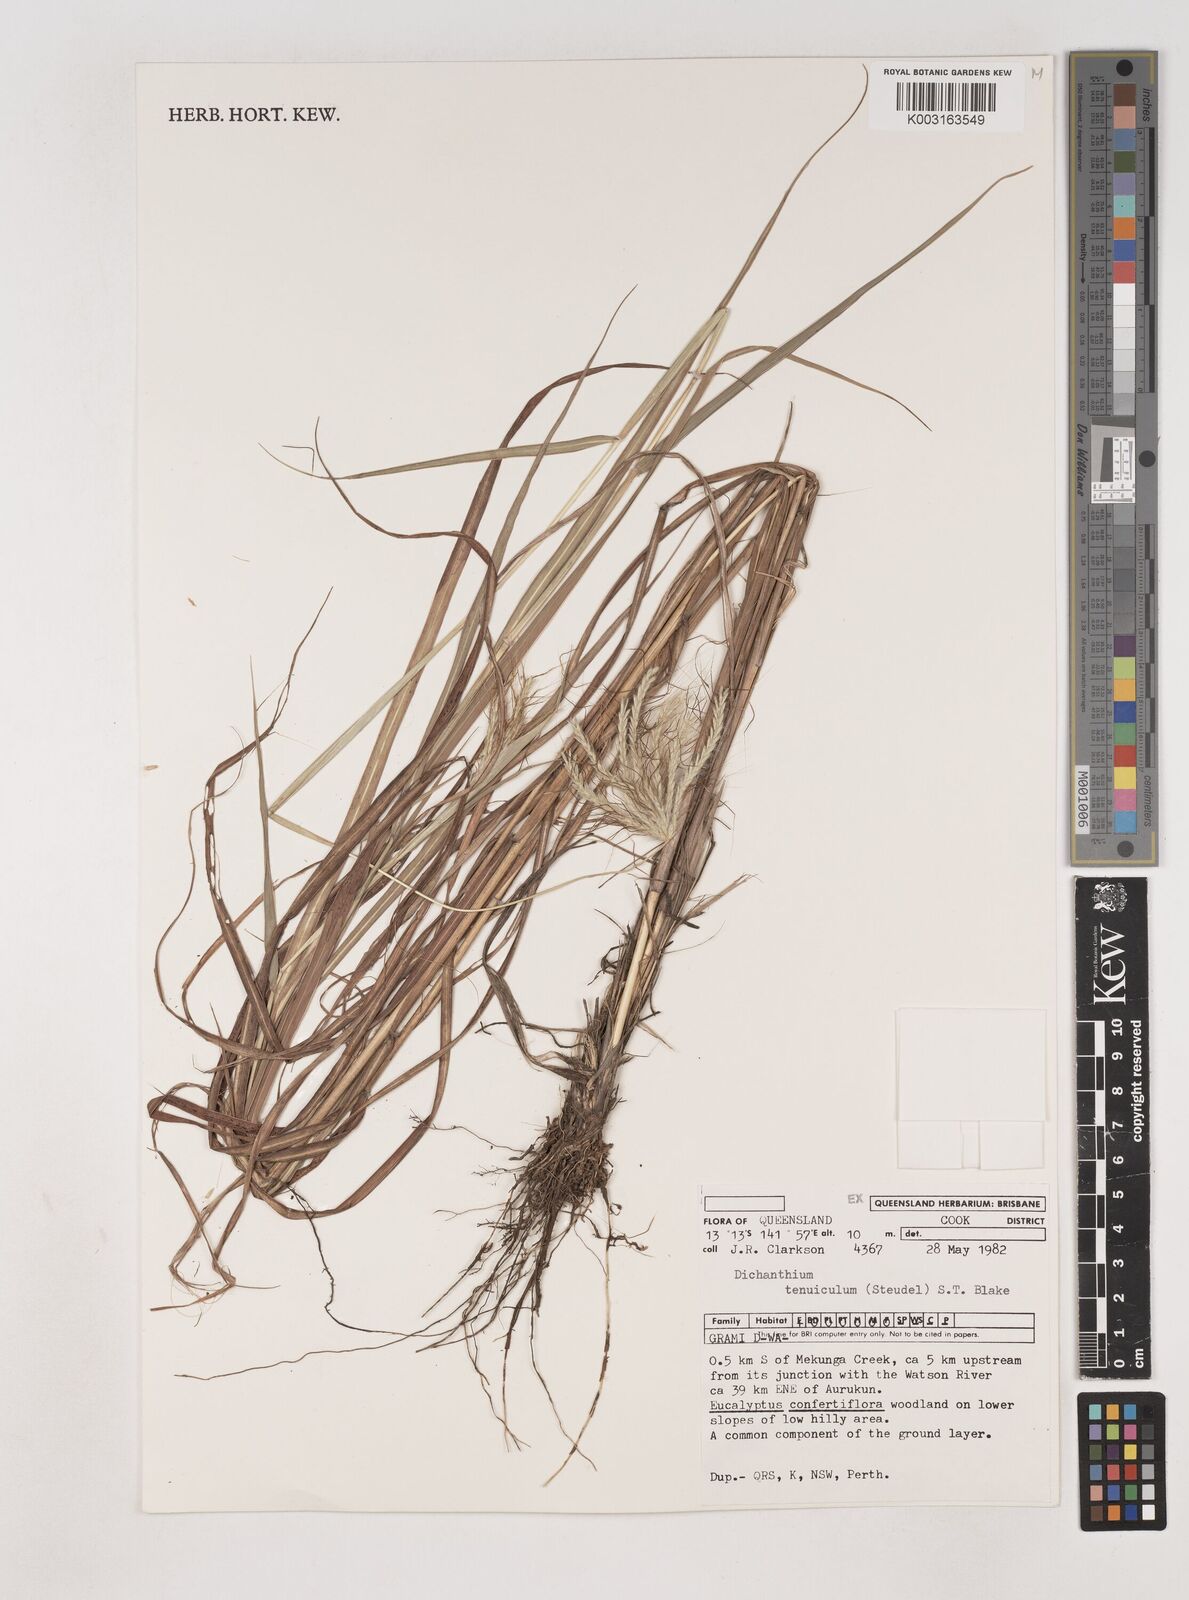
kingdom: Plantae
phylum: Tracheophyta
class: Liliopsida
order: Poales
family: Poaceae
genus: Dichanthium
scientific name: Dichanthium sericeum
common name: Silky bluestem
